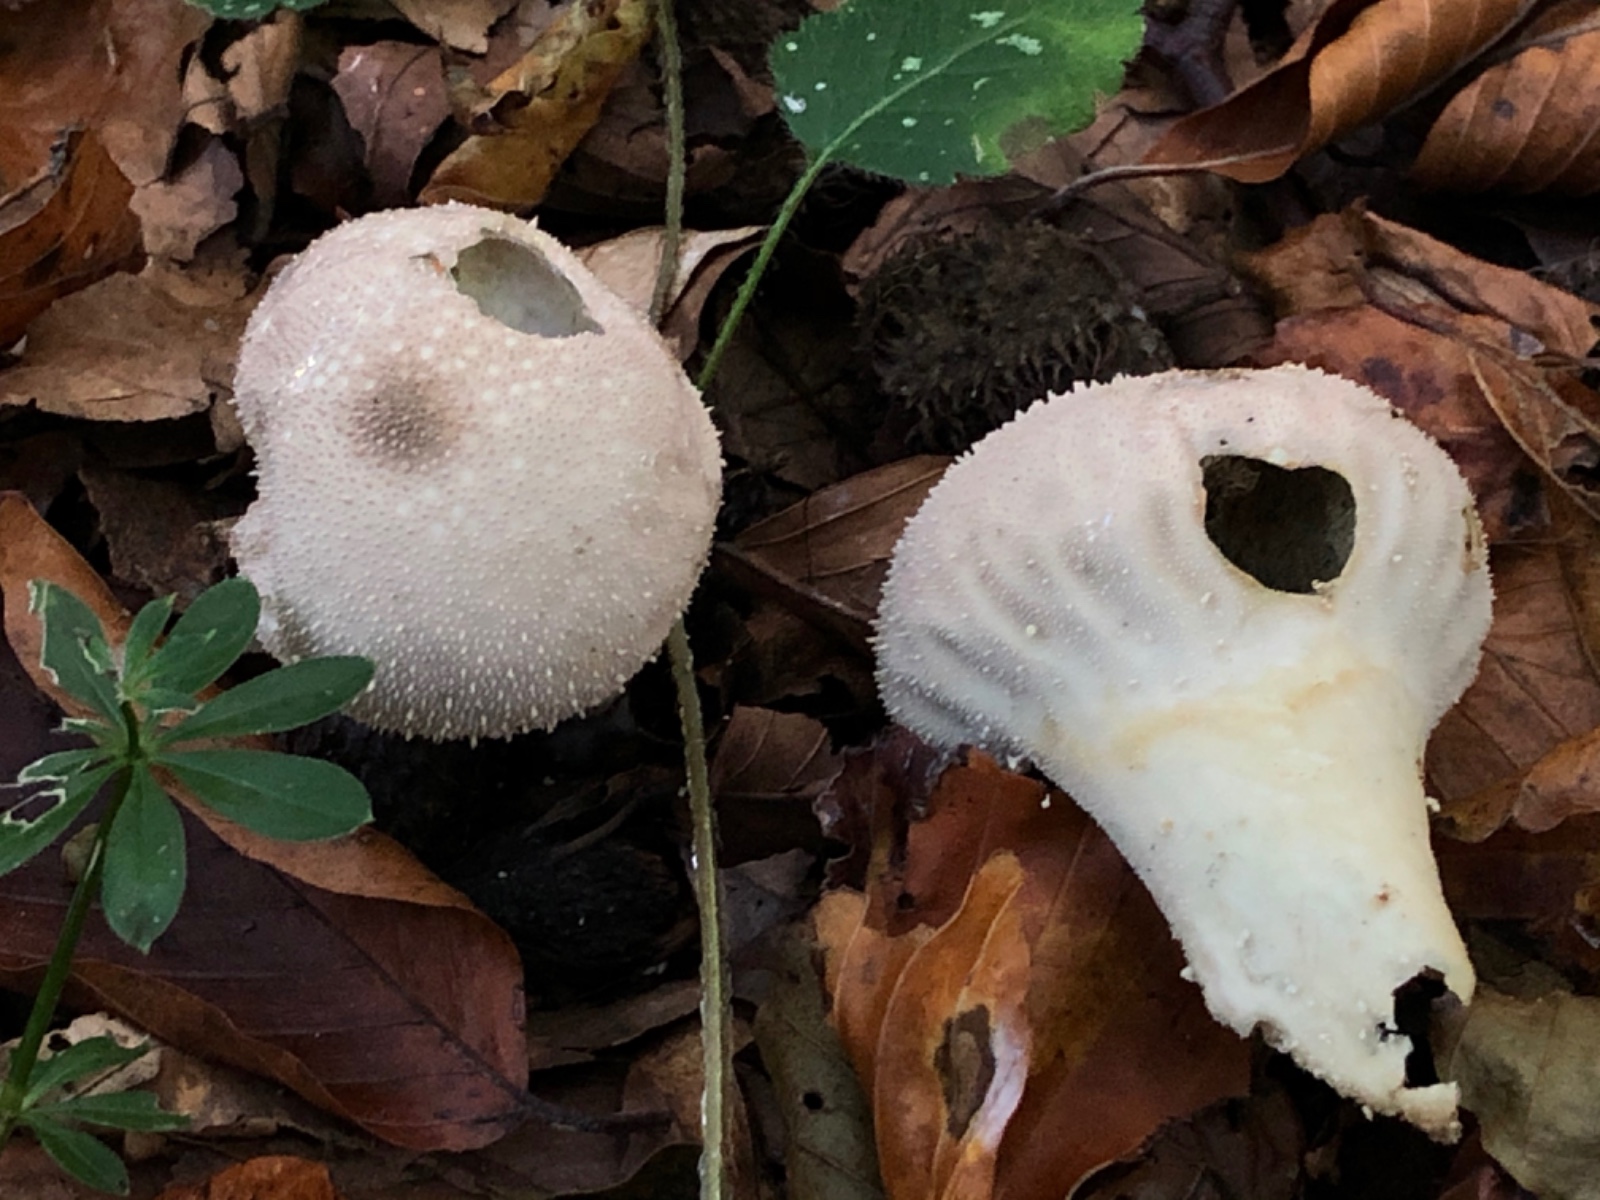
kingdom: Fungi
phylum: Basidiomycota
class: Agaricomycetes
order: Agaricales
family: Lycoperdaceae
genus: Lycoperdon
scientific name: Lycoperdon perlatum
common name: krystal-støvbold
